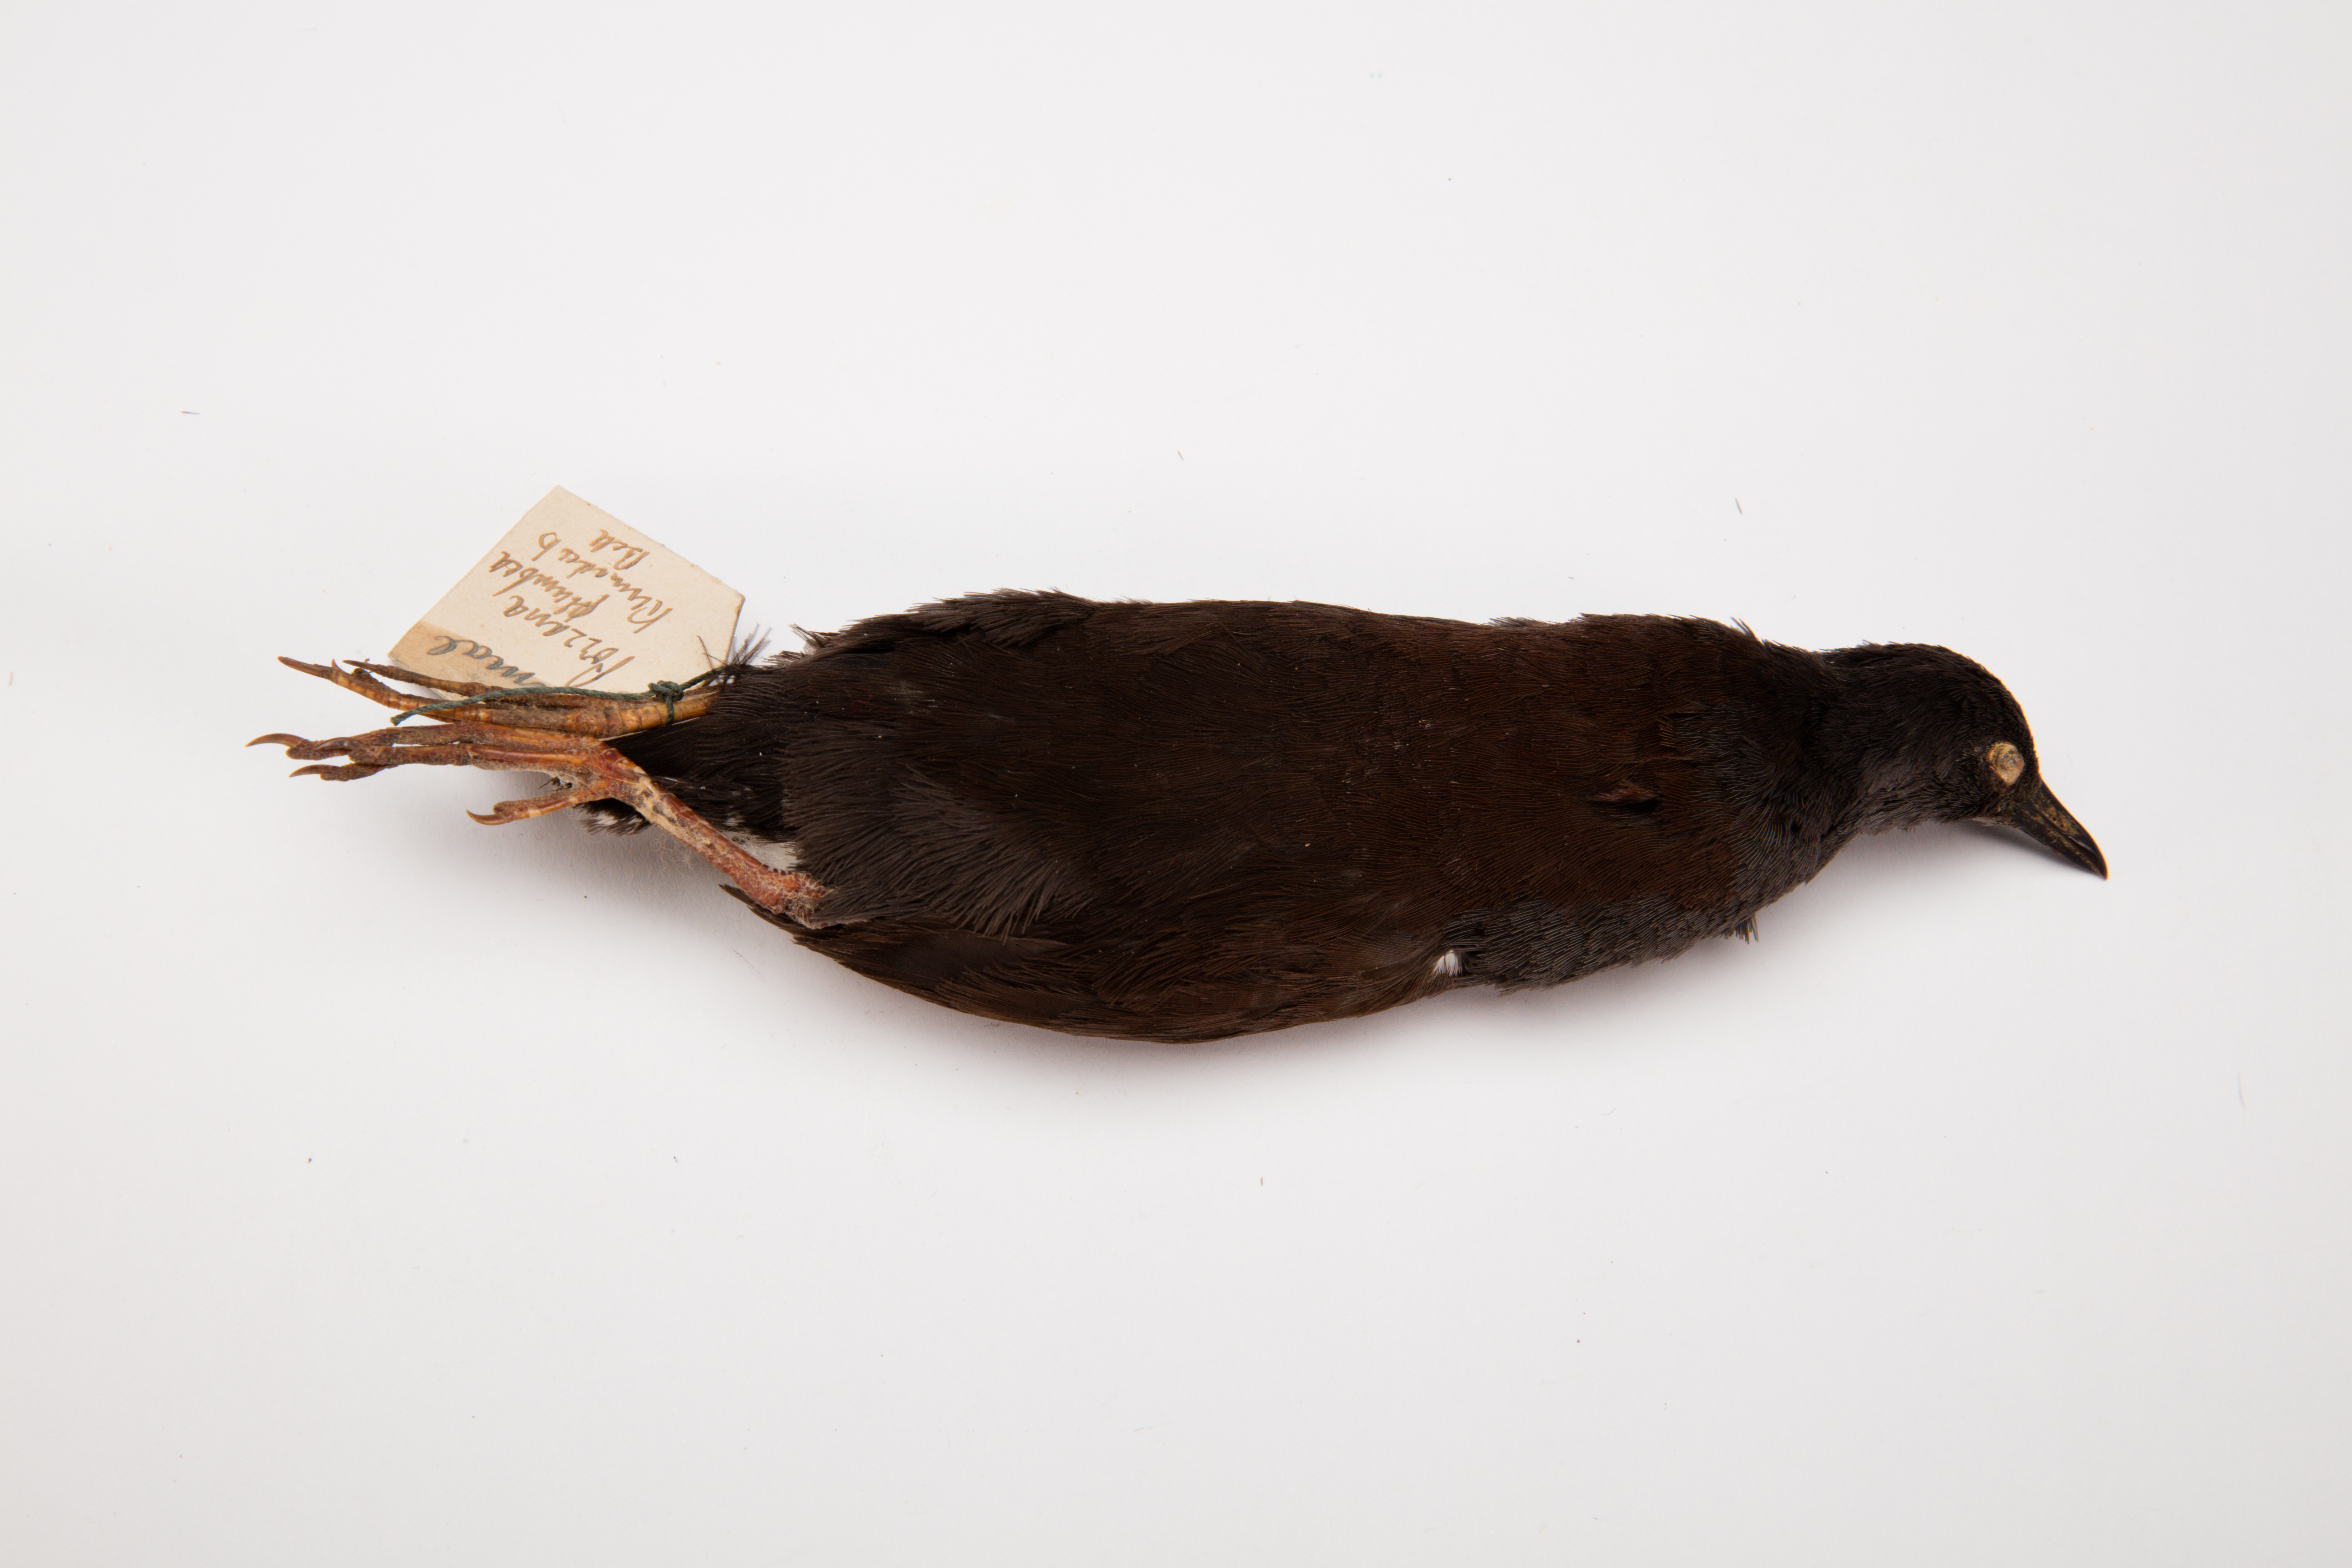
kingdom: Animalia
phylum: Chordata
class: Aves
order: Gruiformes
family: Rallidae
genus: Porzana
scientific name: Porzana tabuensis
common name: Spotless crake
